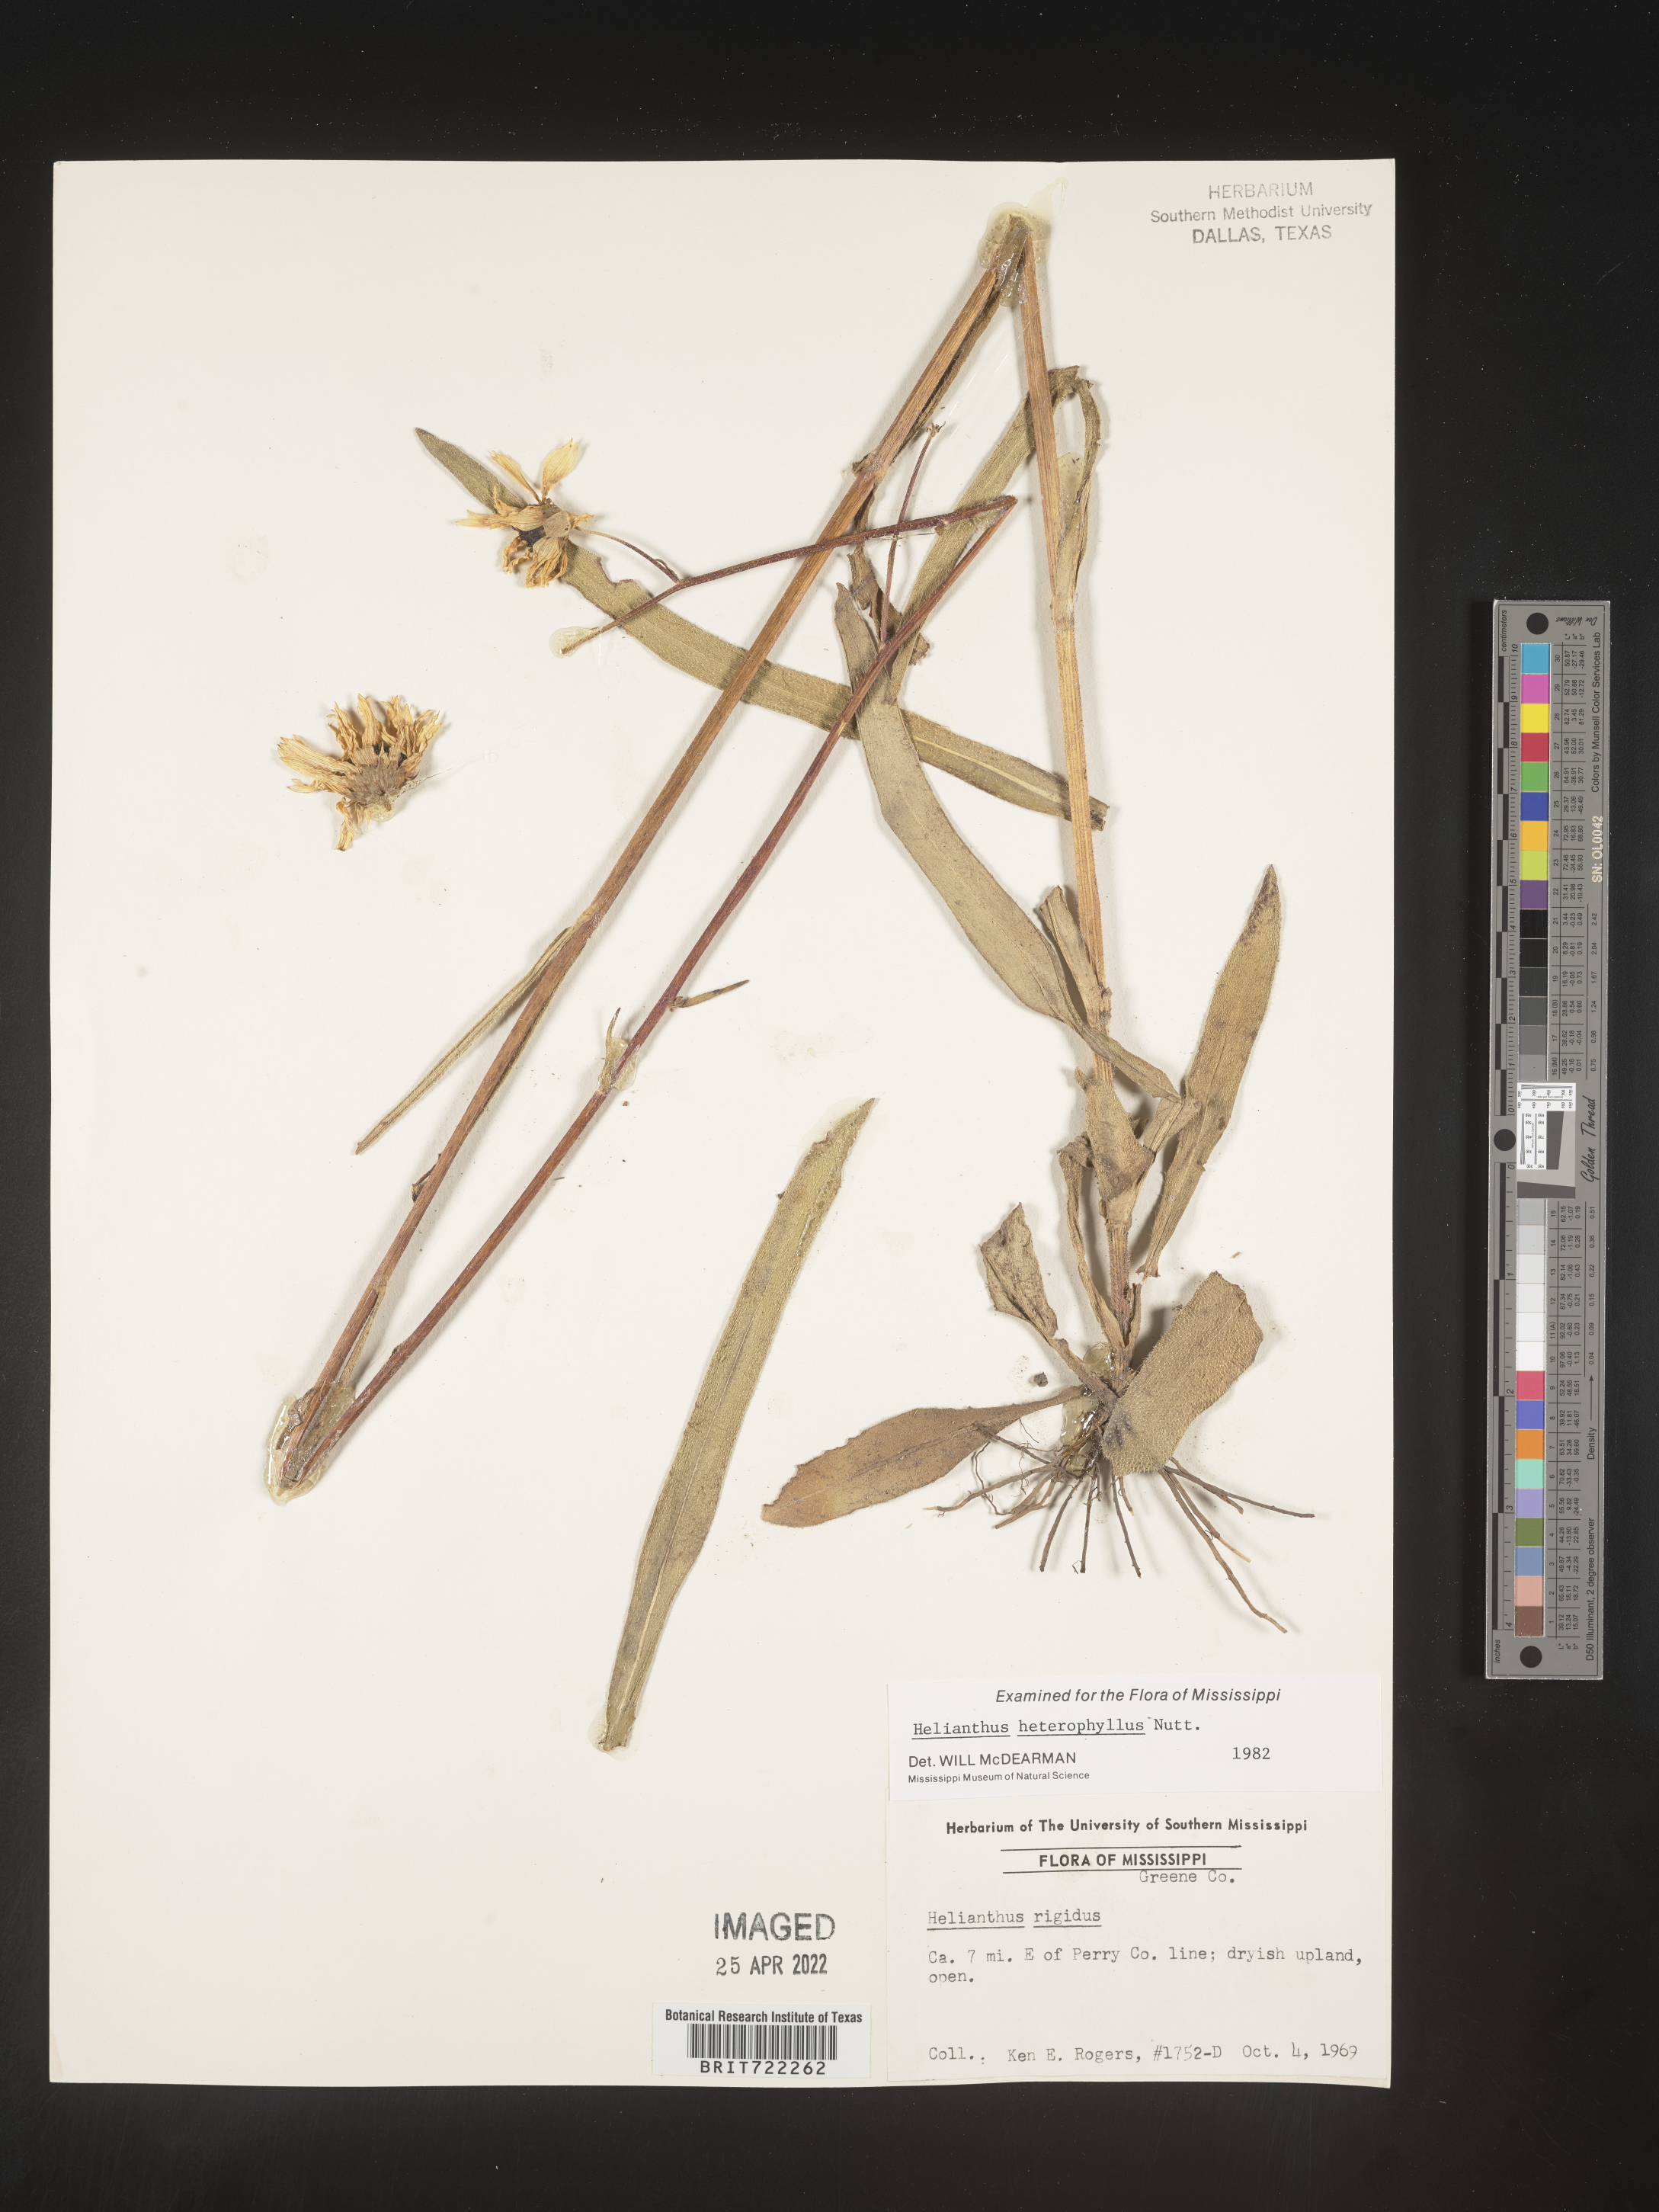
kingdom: Plantae
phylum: Tracheophyta
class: Magnoliopsida
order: Asterales
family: Asteraceae
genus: Helianthus
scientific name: Helianthus heterophyllus
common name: Wetland sunflower
